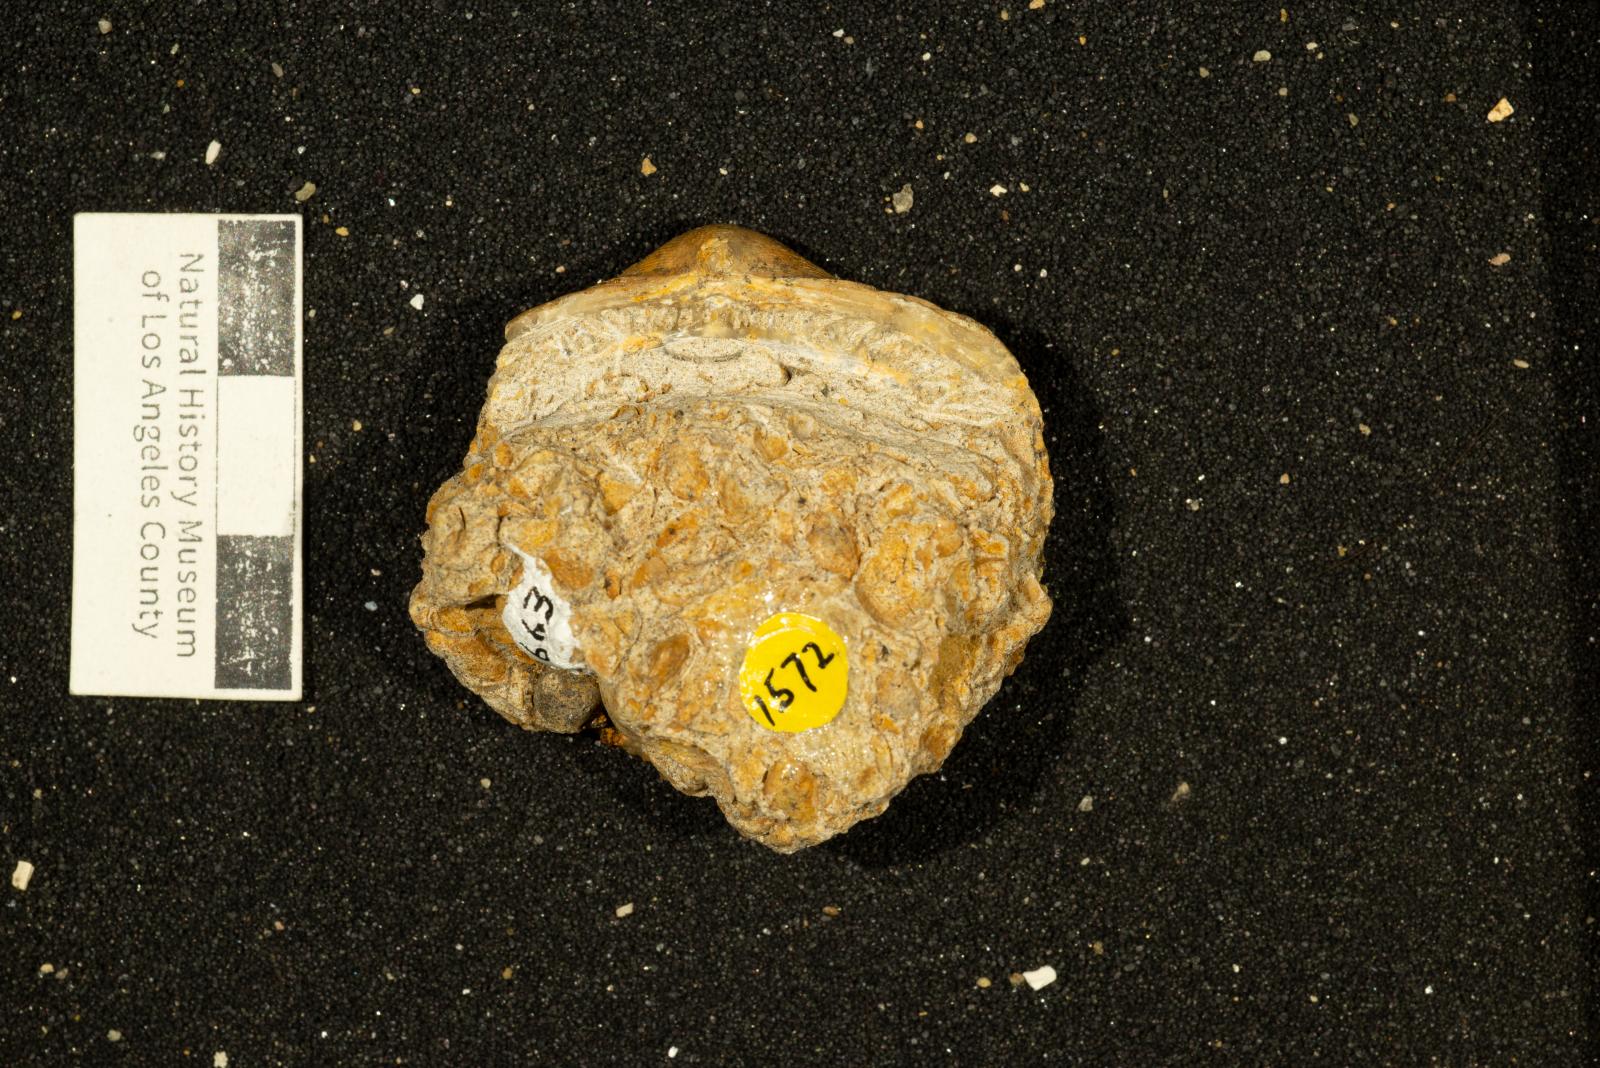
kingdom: Animalia
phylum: Mollusca
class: Bivalvia
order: Arcida
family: Glycymerididae
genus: Glycymerita
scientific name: Glycymerita Glycymeris banosensis
